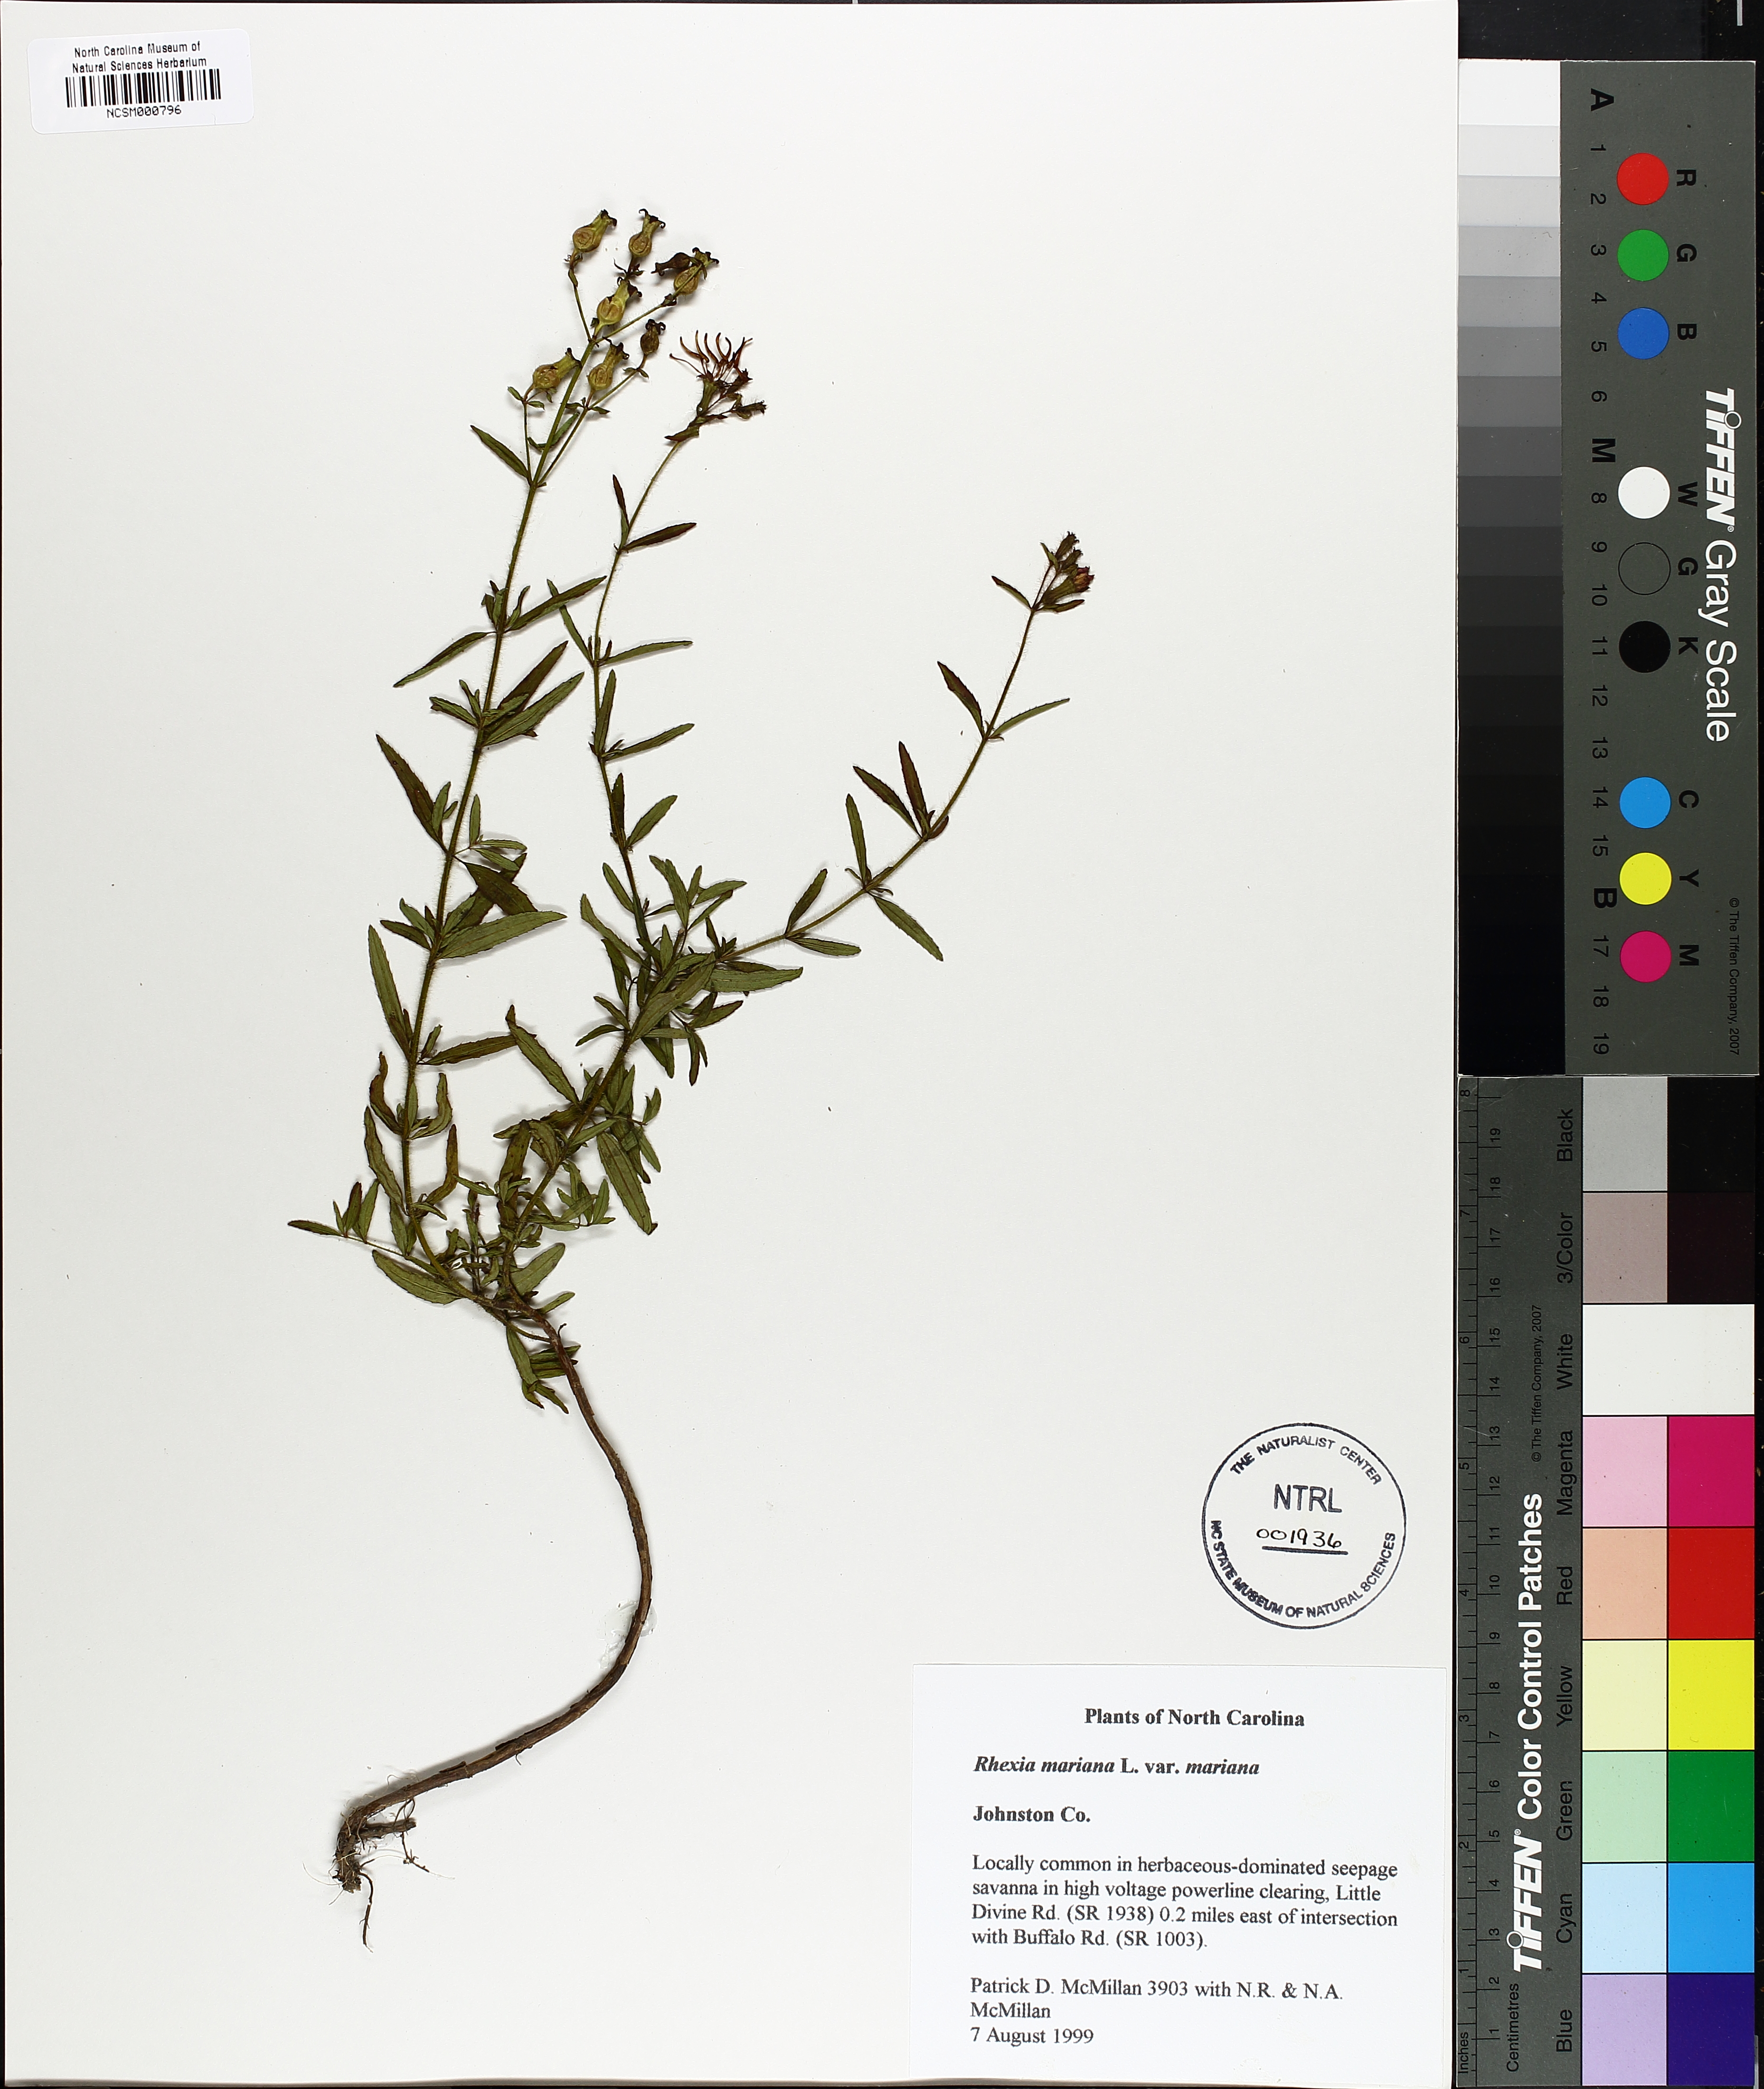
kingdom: Plantae
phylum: Tracheophyta
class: Magnoliopsida
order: Myrtales
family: Melastomataceae
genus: Rhexia
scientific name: Rhexia mariana
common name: Dull meadow-pitcher
